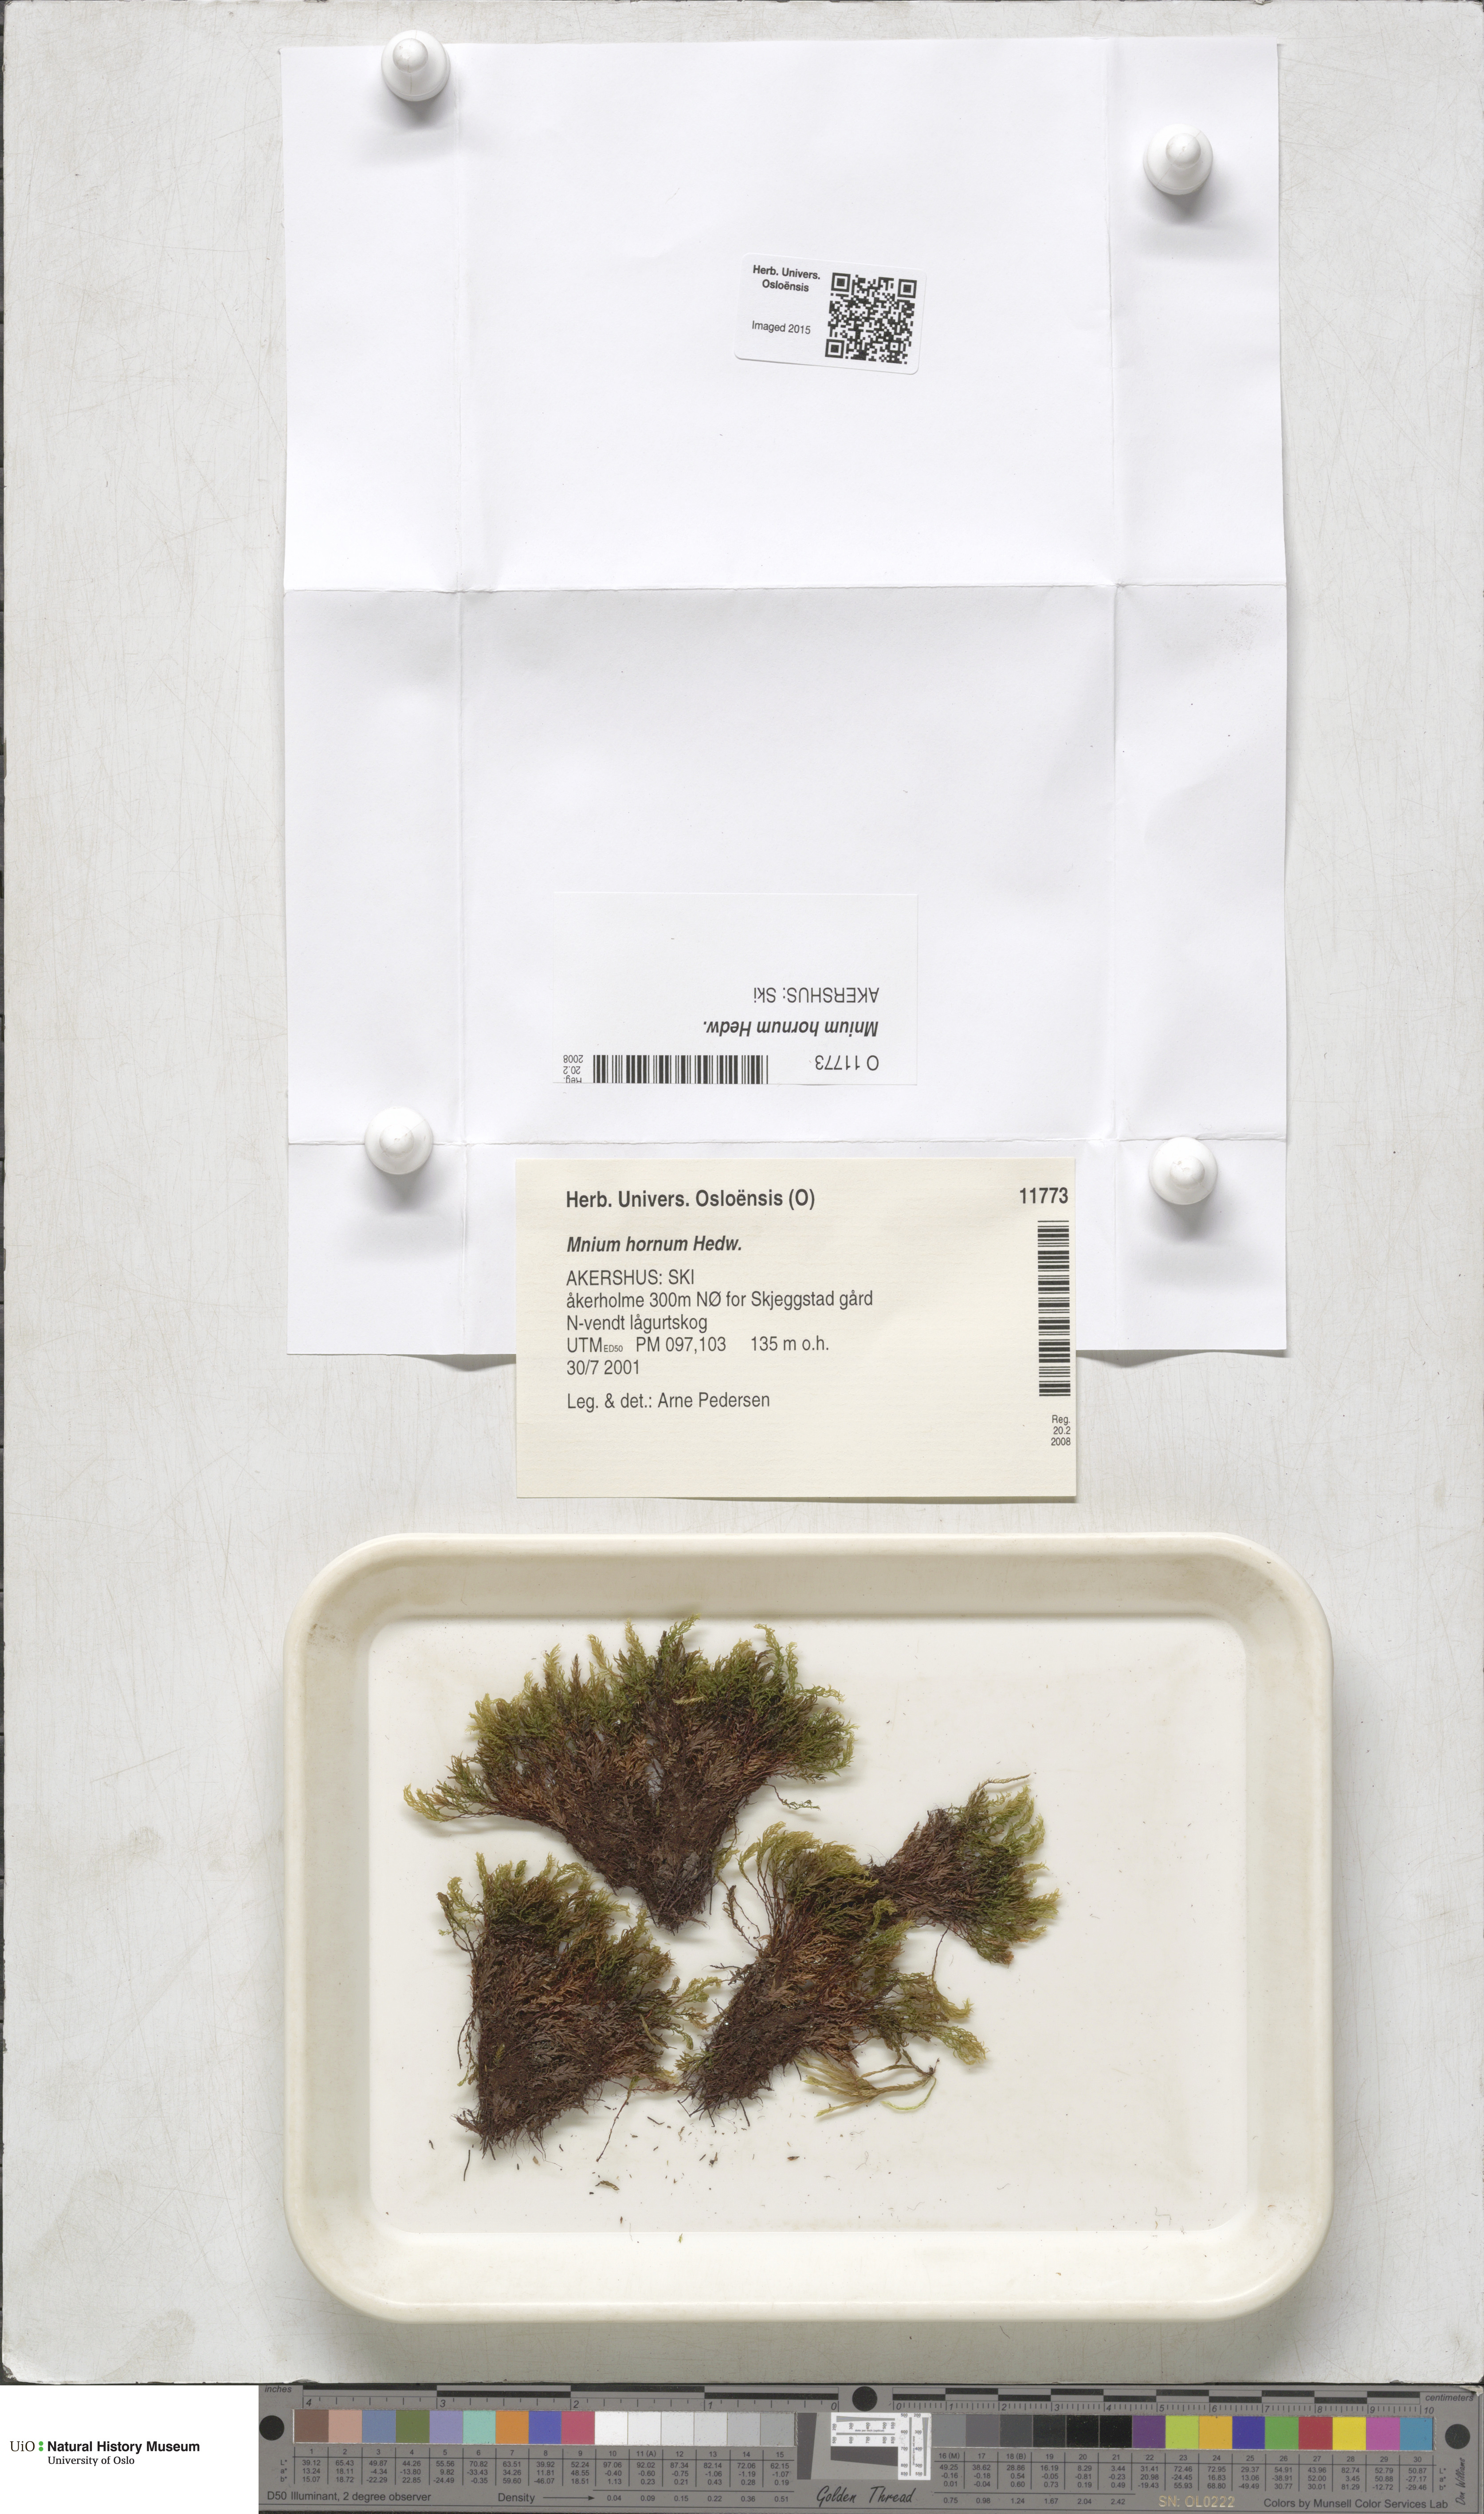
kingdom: Plantae
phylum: Bryophyta
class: Bryopsida
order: Bryales
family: Mniaceae
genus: Mnium
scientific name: Mnium hornum
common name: Swan's-neck leafy moss
